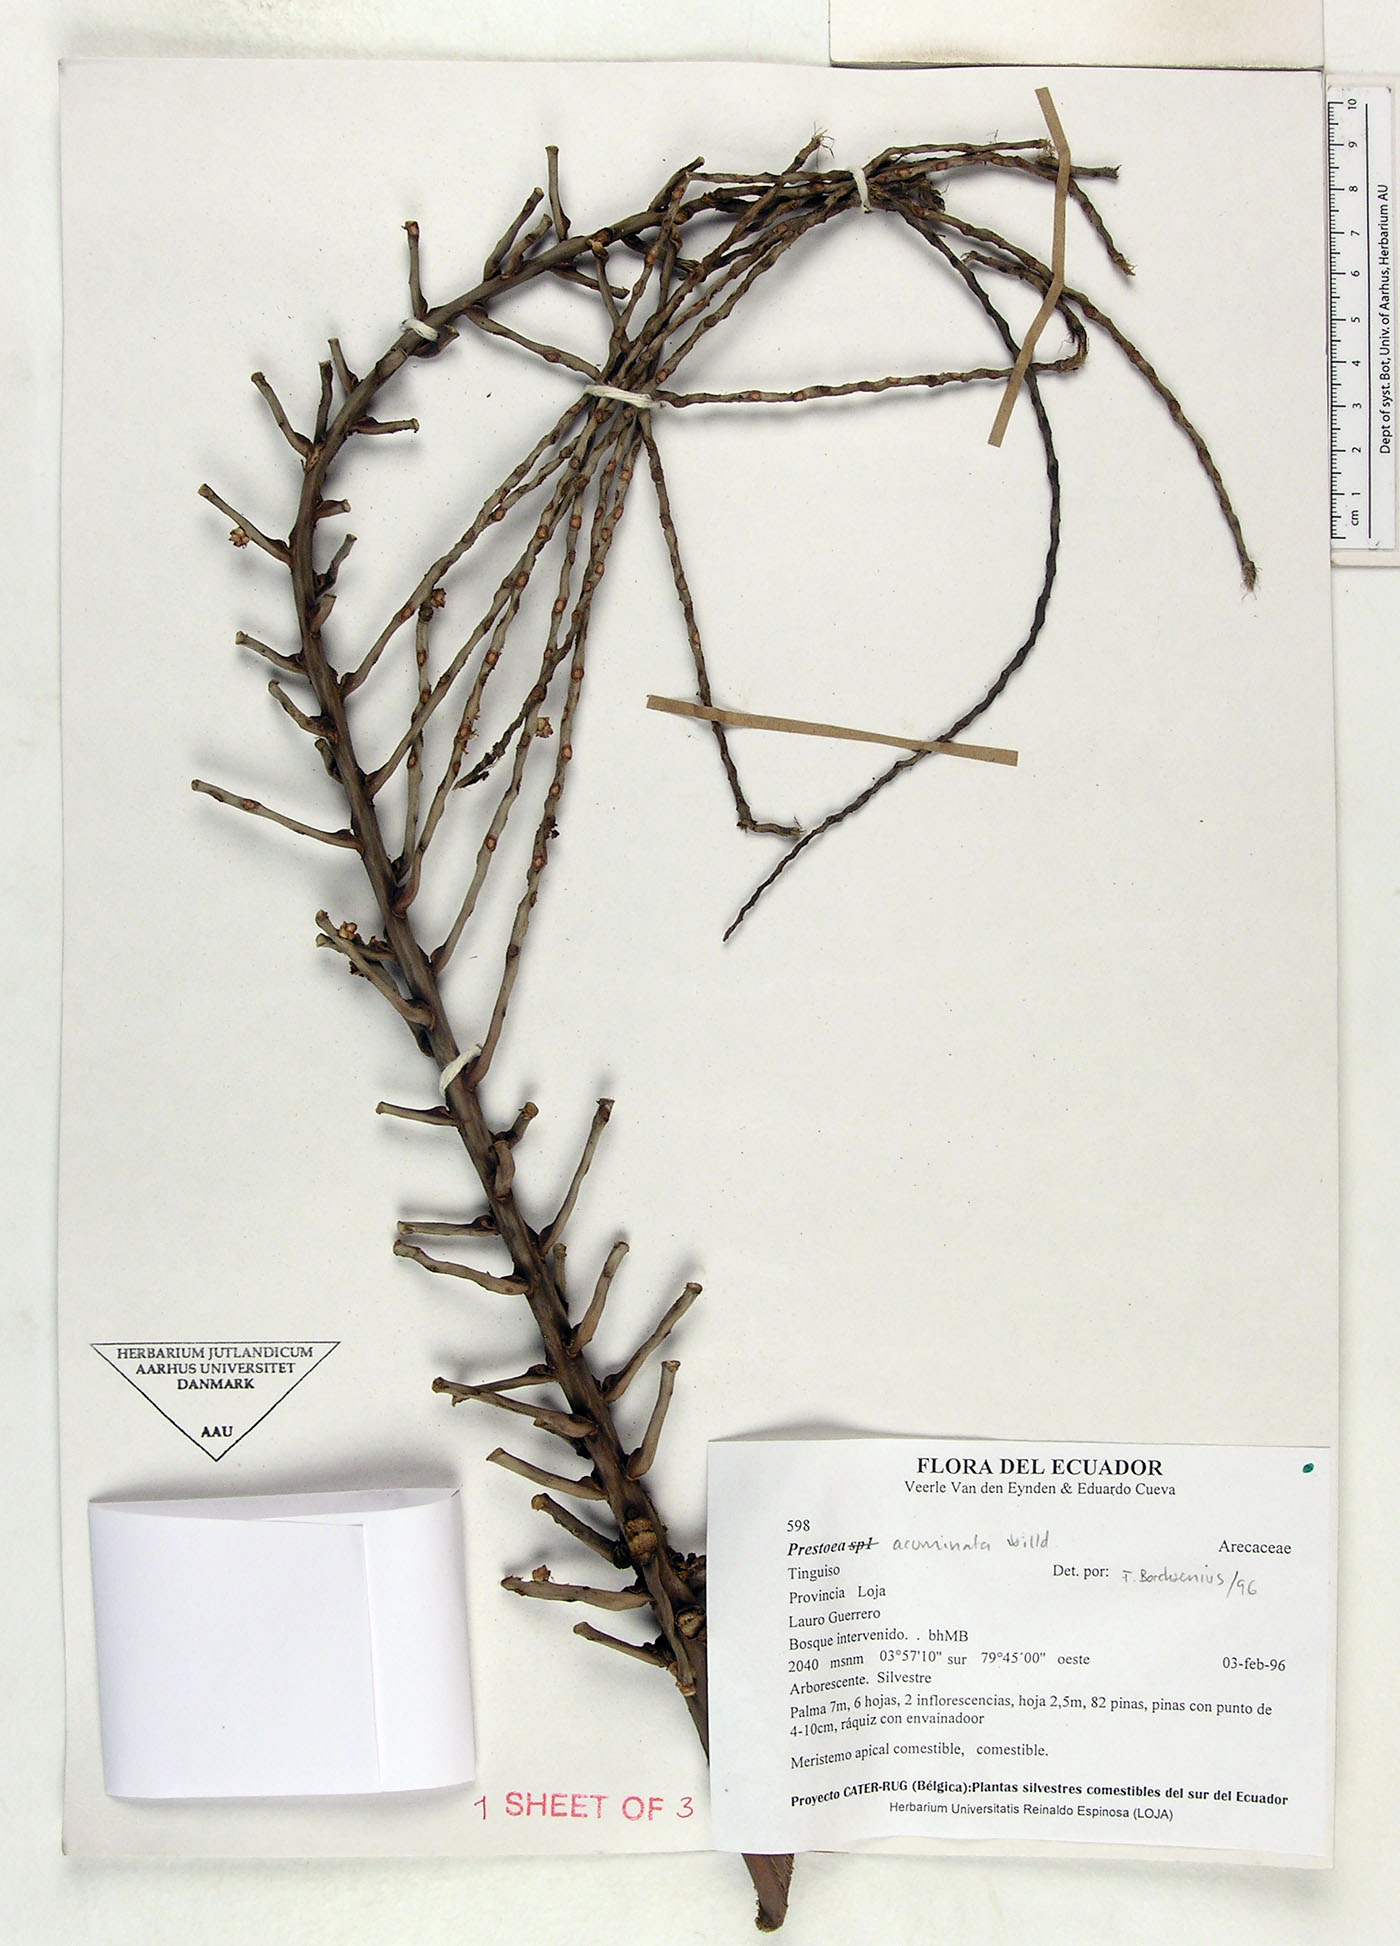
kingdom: Plantae
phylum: Tracheophyta
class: Liliopsida
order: Arecales
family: Arecaceae
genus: Prestoea
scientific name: Prestoea acuminata
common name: Sierran palm
